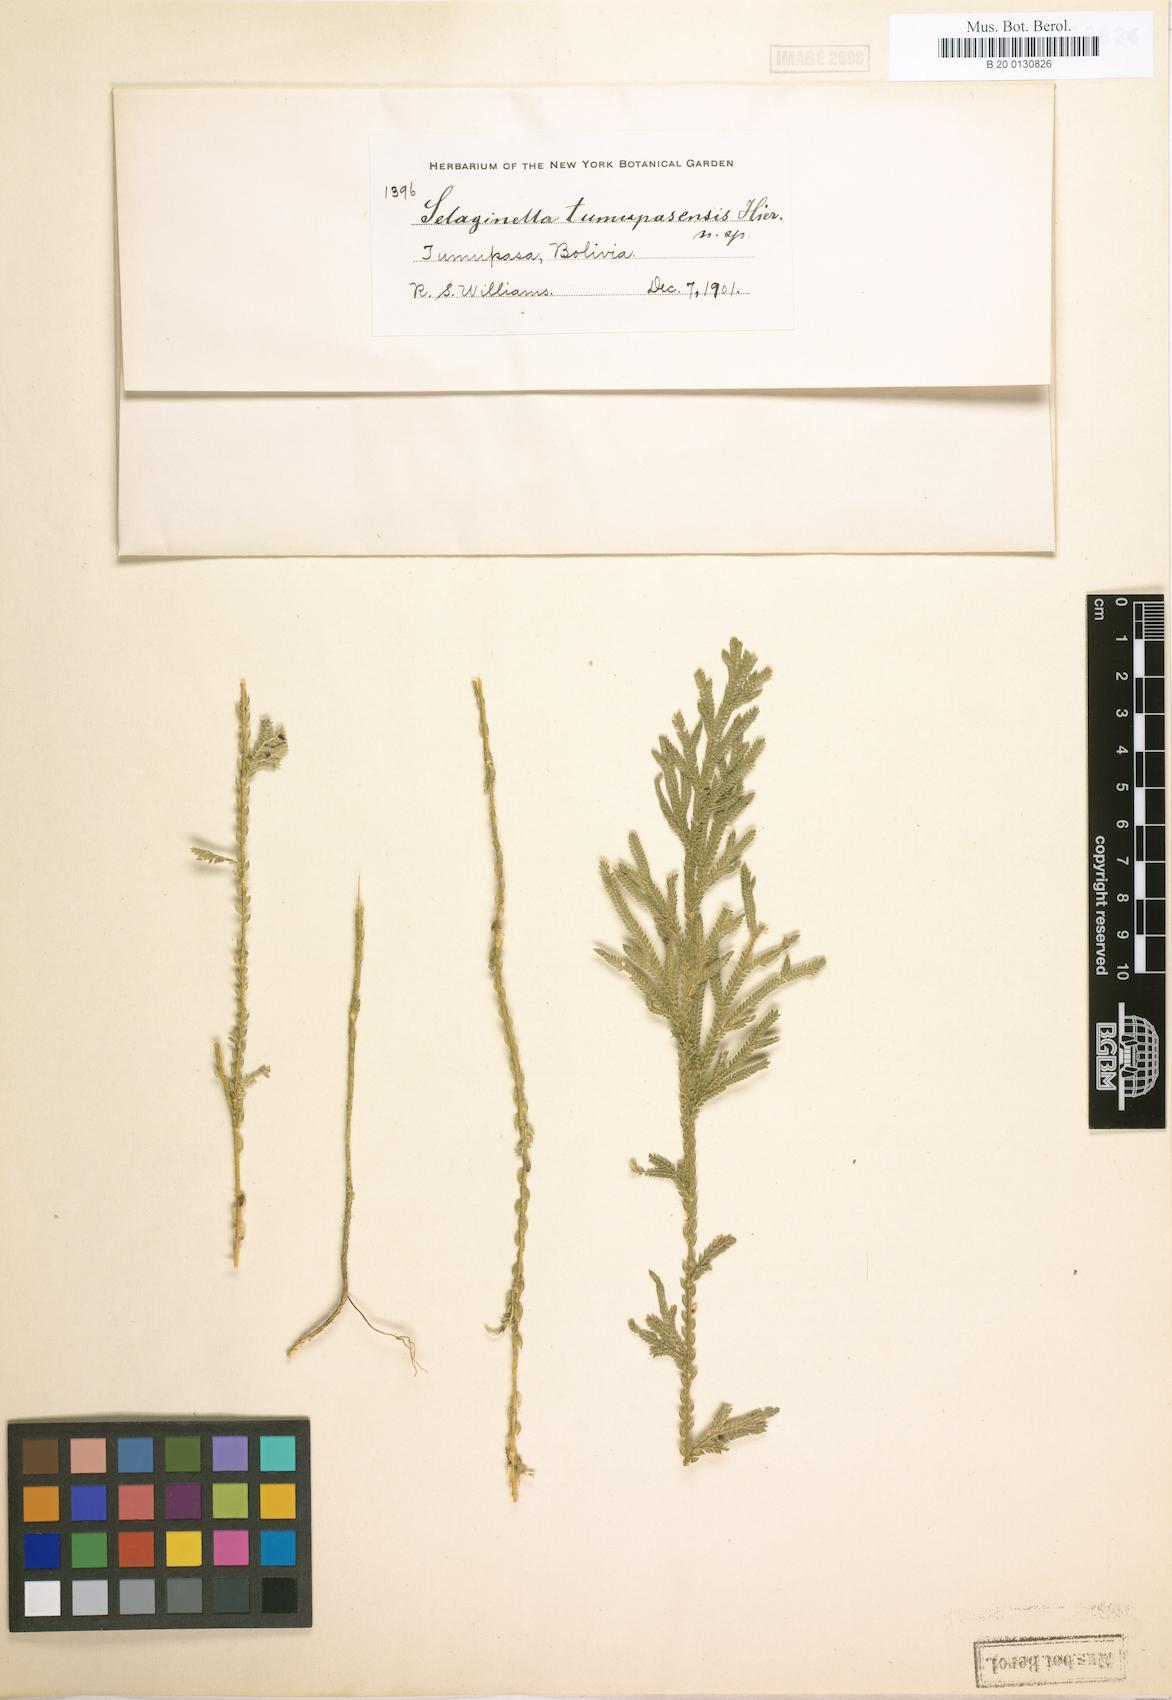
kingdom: Plantae
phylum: Tracheophyta
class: Lycopodiopsida
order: Selaginellales
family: Selaginellaceae
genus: Selaginella
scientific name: Selaginella
